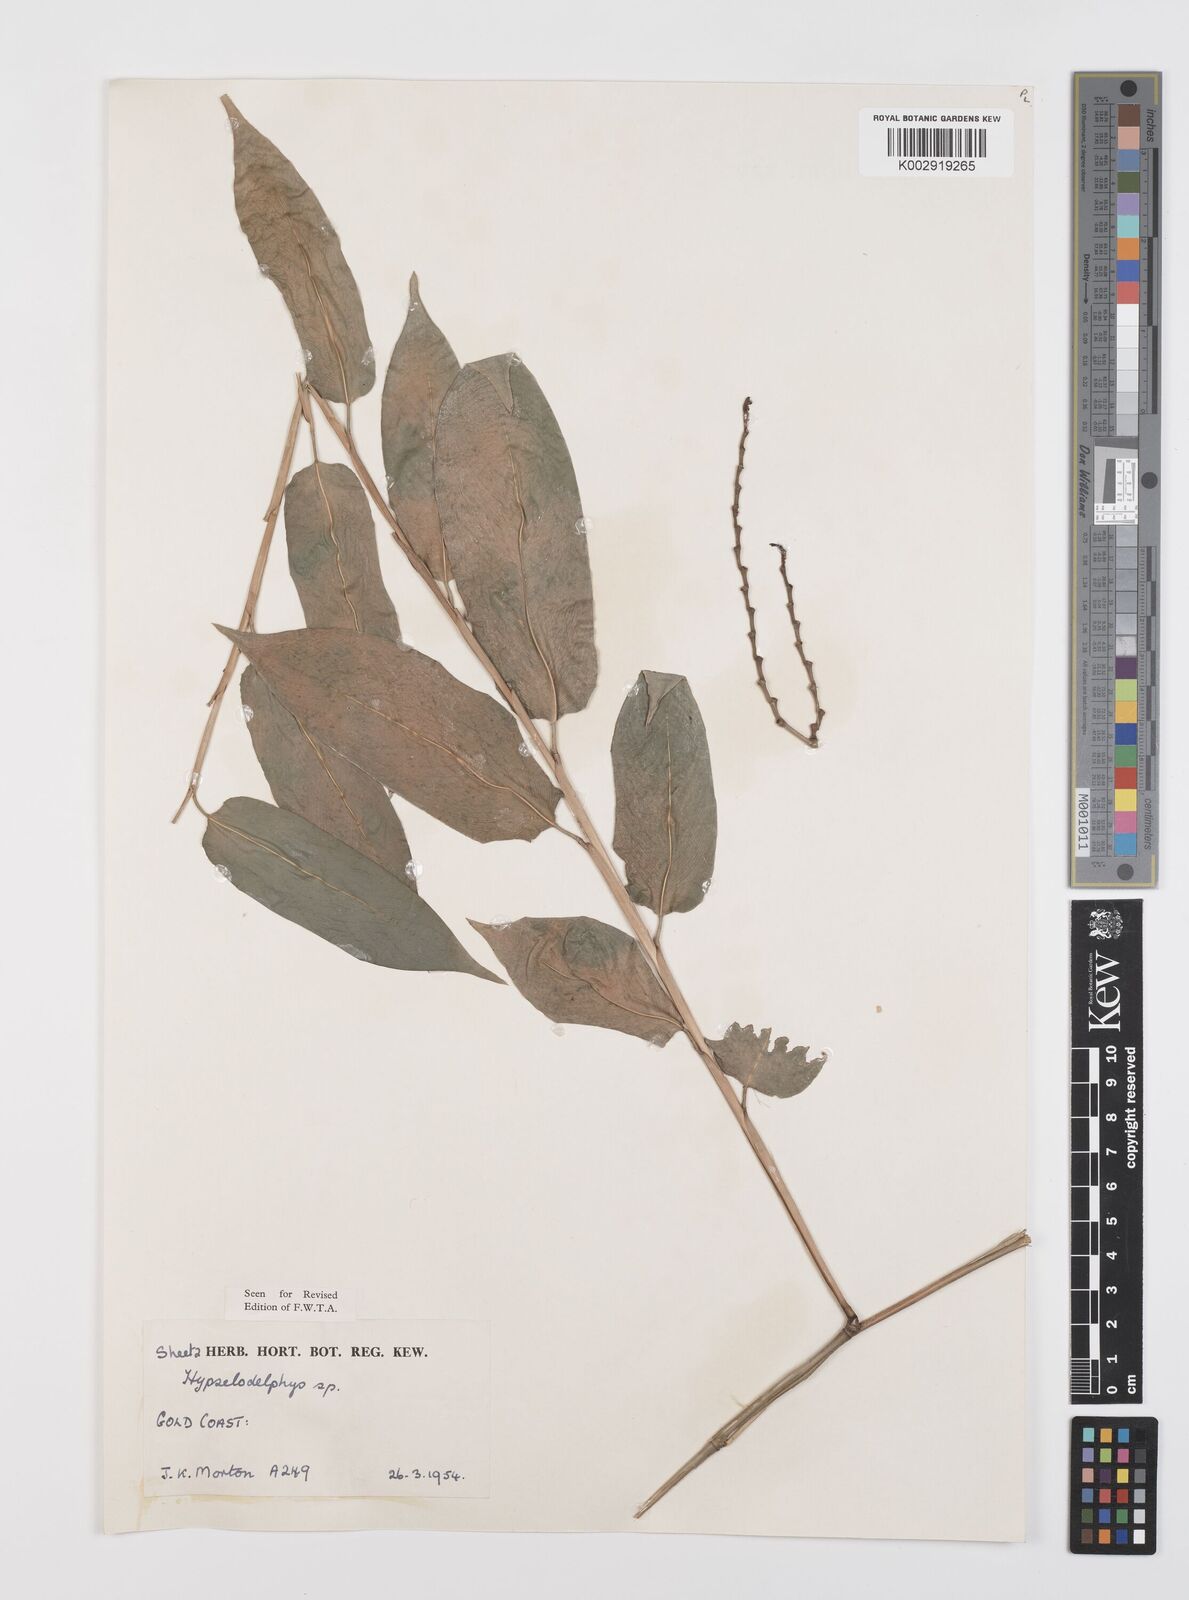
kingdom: Plantae
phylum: Tracheophyta
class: Liliopsida
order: Zingiberales
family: Marantaceae
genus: Hypselodelphys
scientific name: Hypselodelphys
